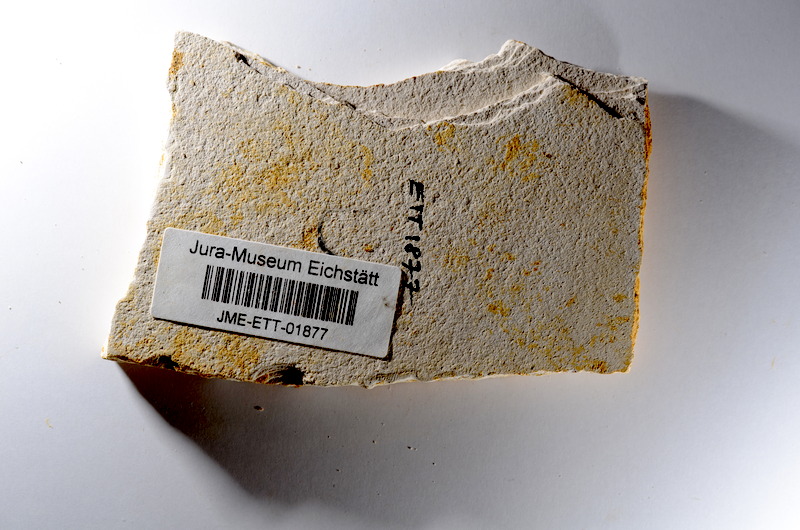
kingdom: Animalia
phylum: Chordata
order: Salmoniformes
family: Orthogonikleithridae
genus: Orthogonikleithrus
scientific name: Orthogonikleithrus hoelli
